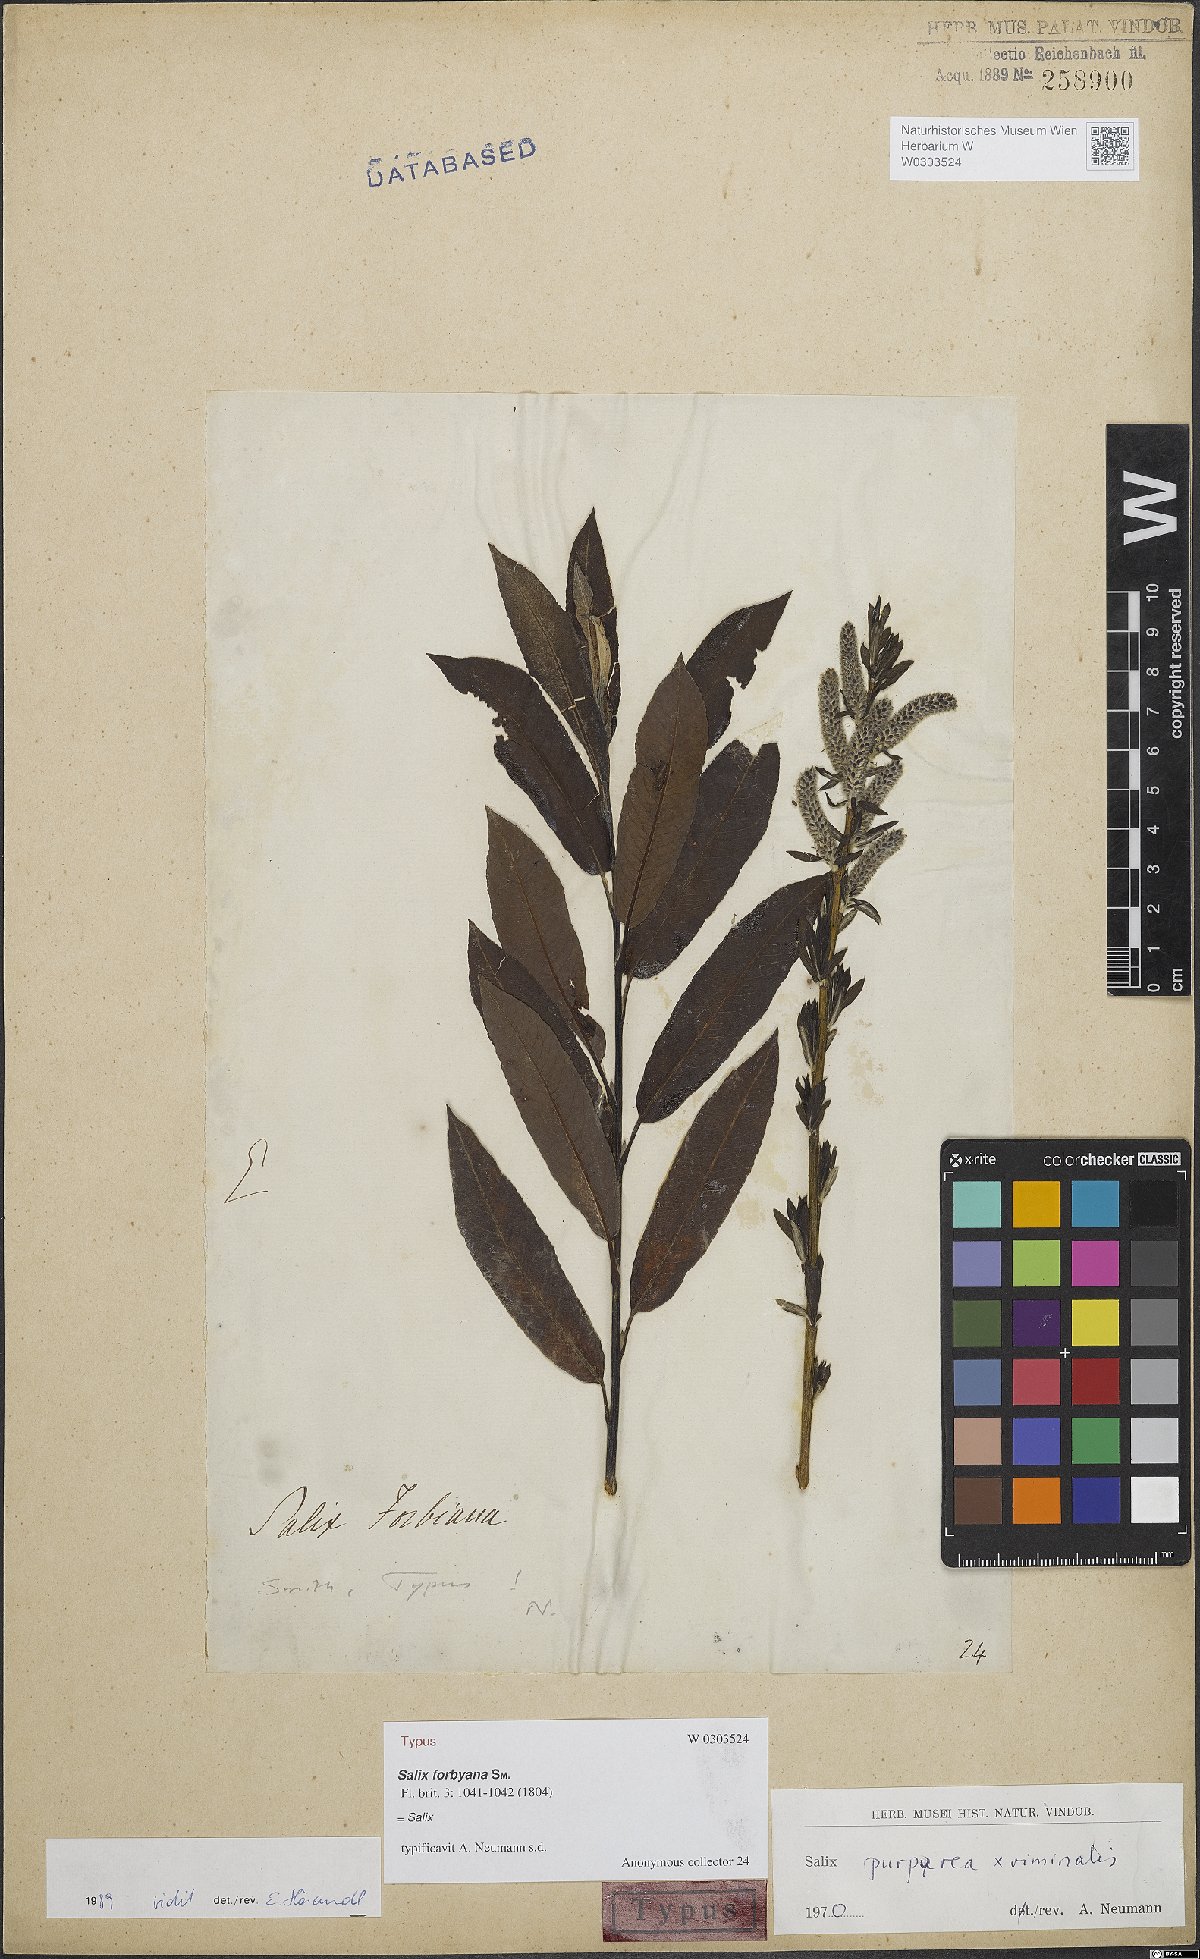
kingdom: Plantae
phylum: Tracheophyta
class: Magnoliopsida
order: Malpighiales
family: Salicaceae
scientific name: Salicaceae
